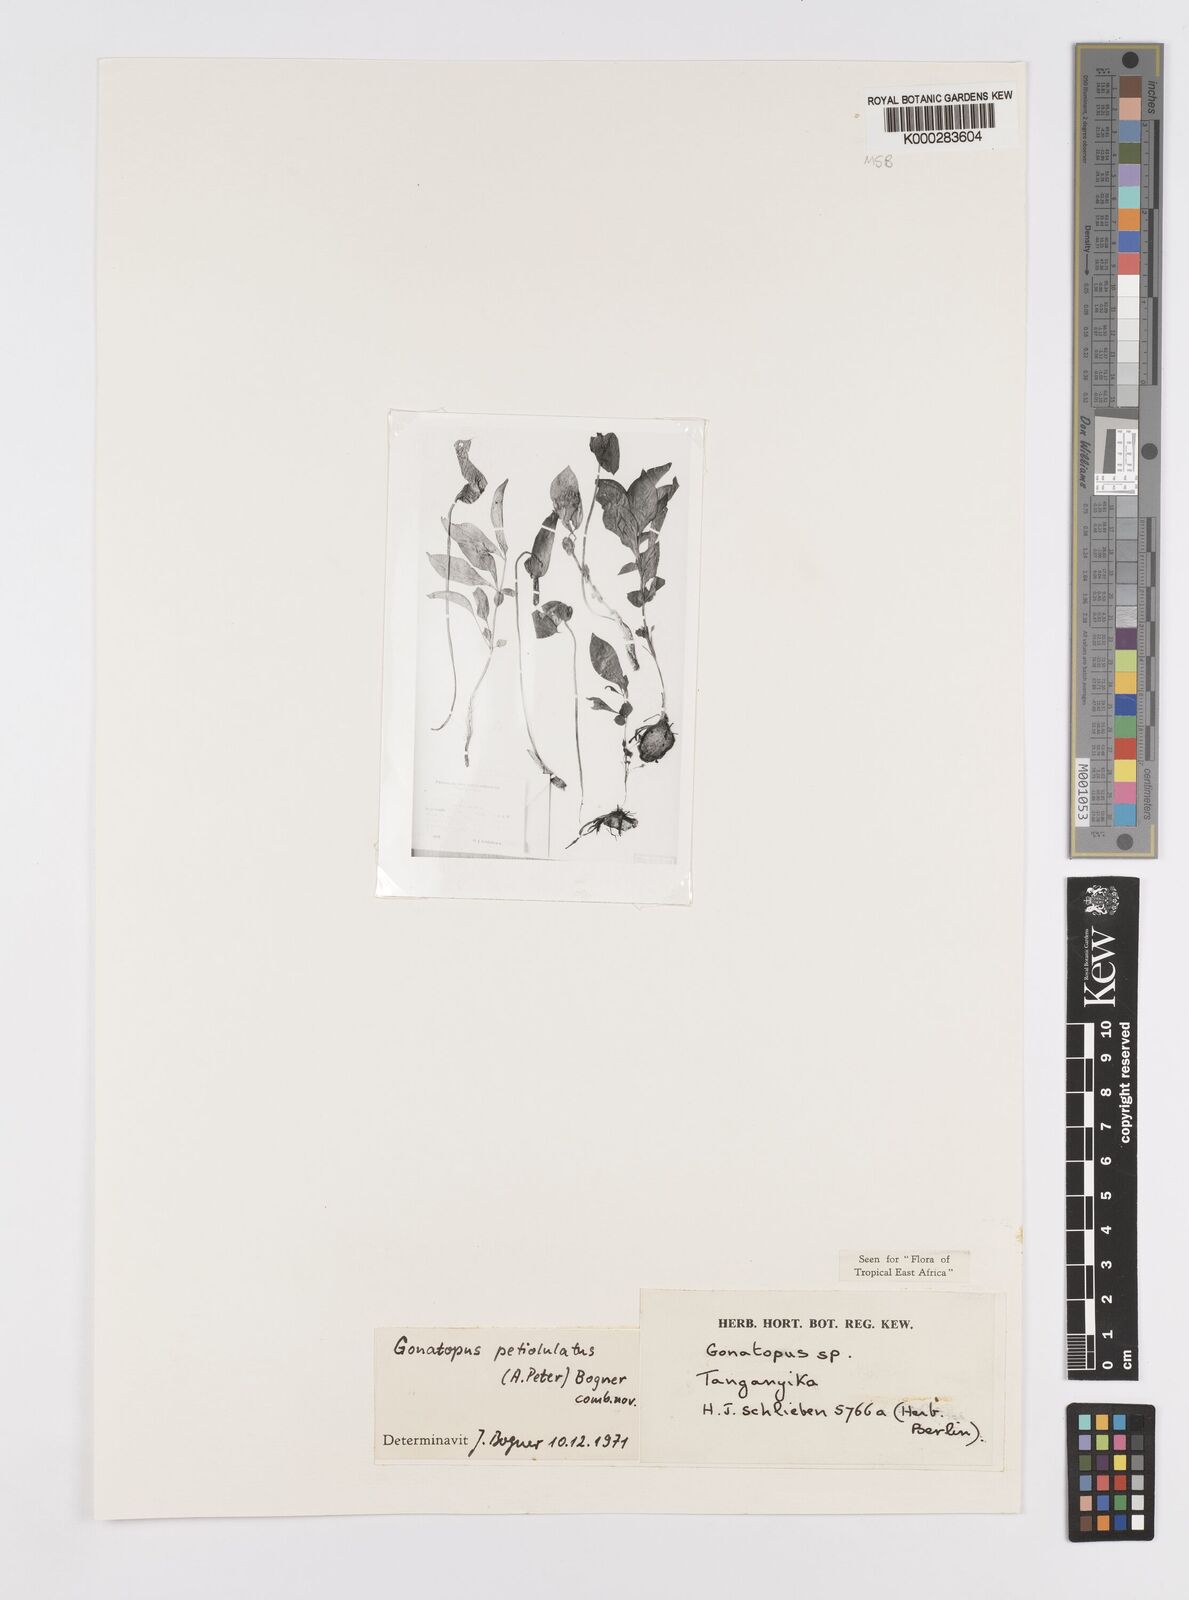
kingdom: Plantae
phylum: Tracheophyta
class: Liliopsida
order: Alismatales
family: Araceae
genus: Gonatopus
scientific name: Gonatopus petiolulatus
